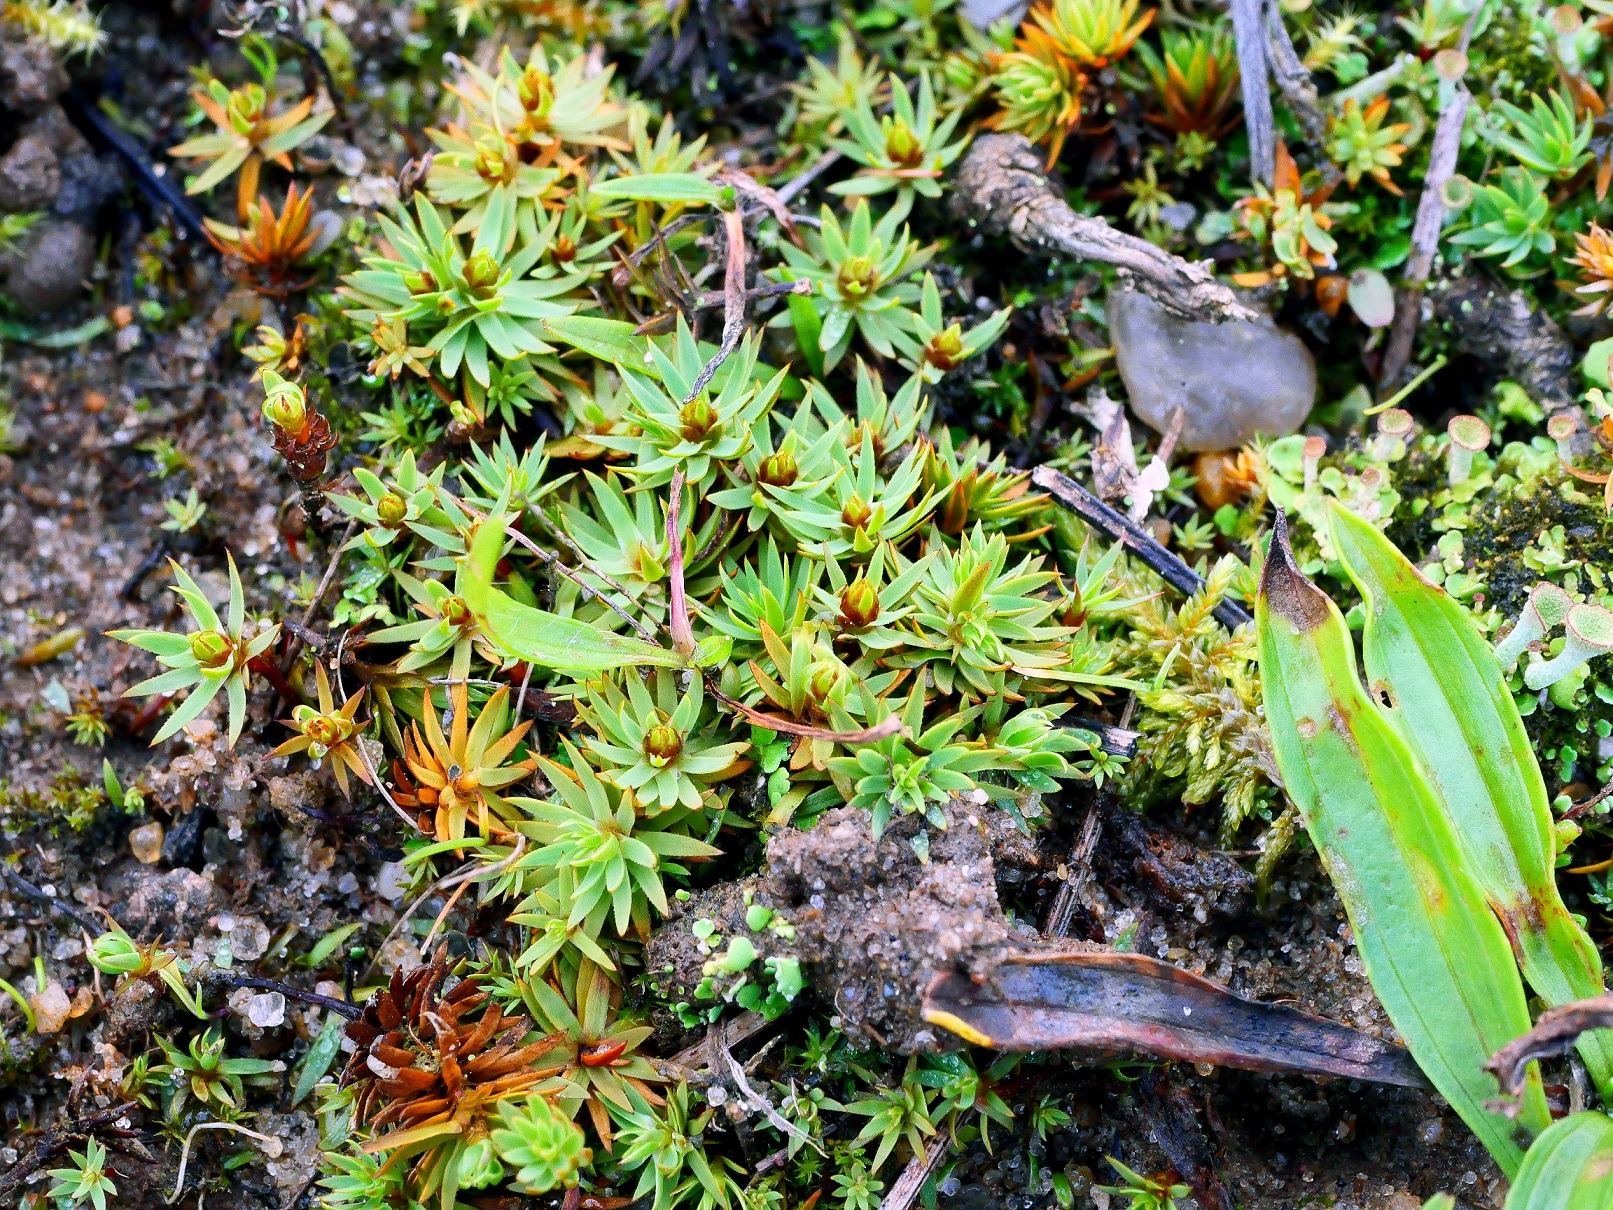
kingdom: Plantae
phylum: Bryophyta
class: Polytrichopsida
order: Polytrichales
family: Polytrichaceae
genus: Pogonatum
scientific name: Pogonatum urnigerum
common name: Stor urnekapsel
